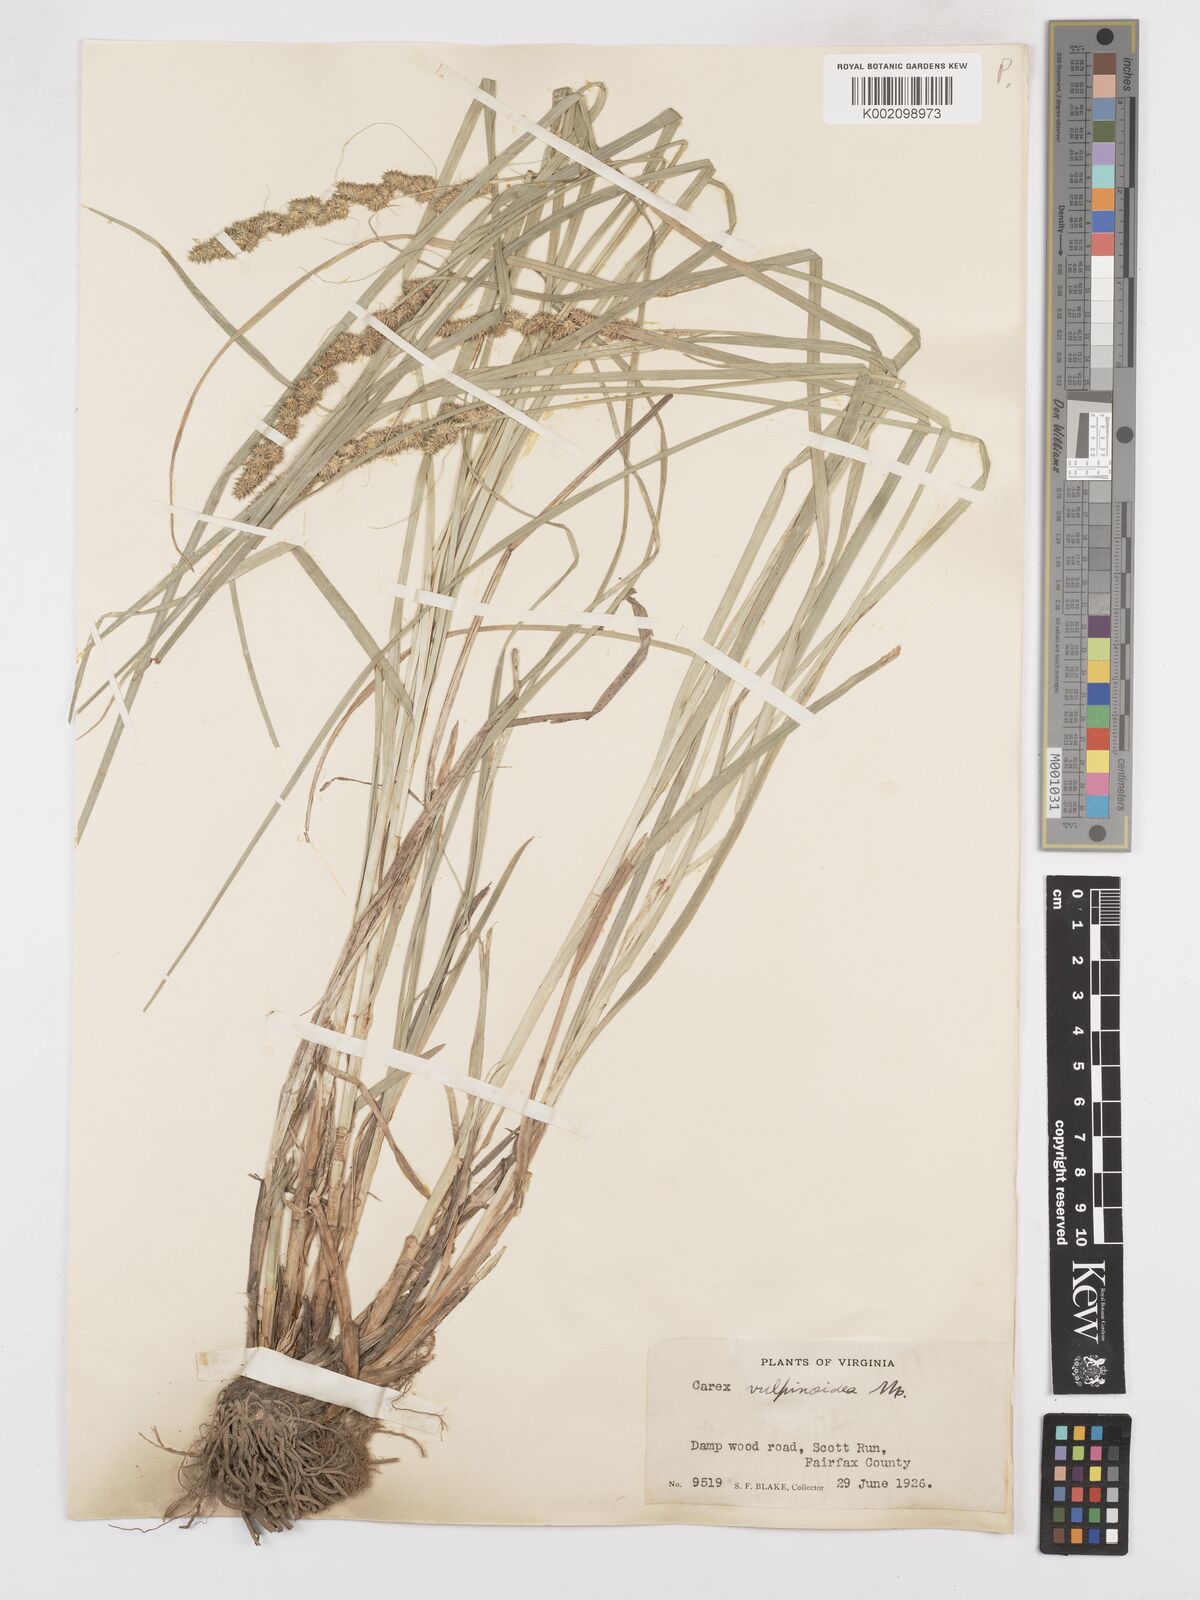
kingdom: Plantae
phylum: Tracheophyta
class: Liliopsida
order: Poales
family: Cyperaceae
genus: Carex
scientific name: Carex vulpinoidea
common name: American fox-sedge
